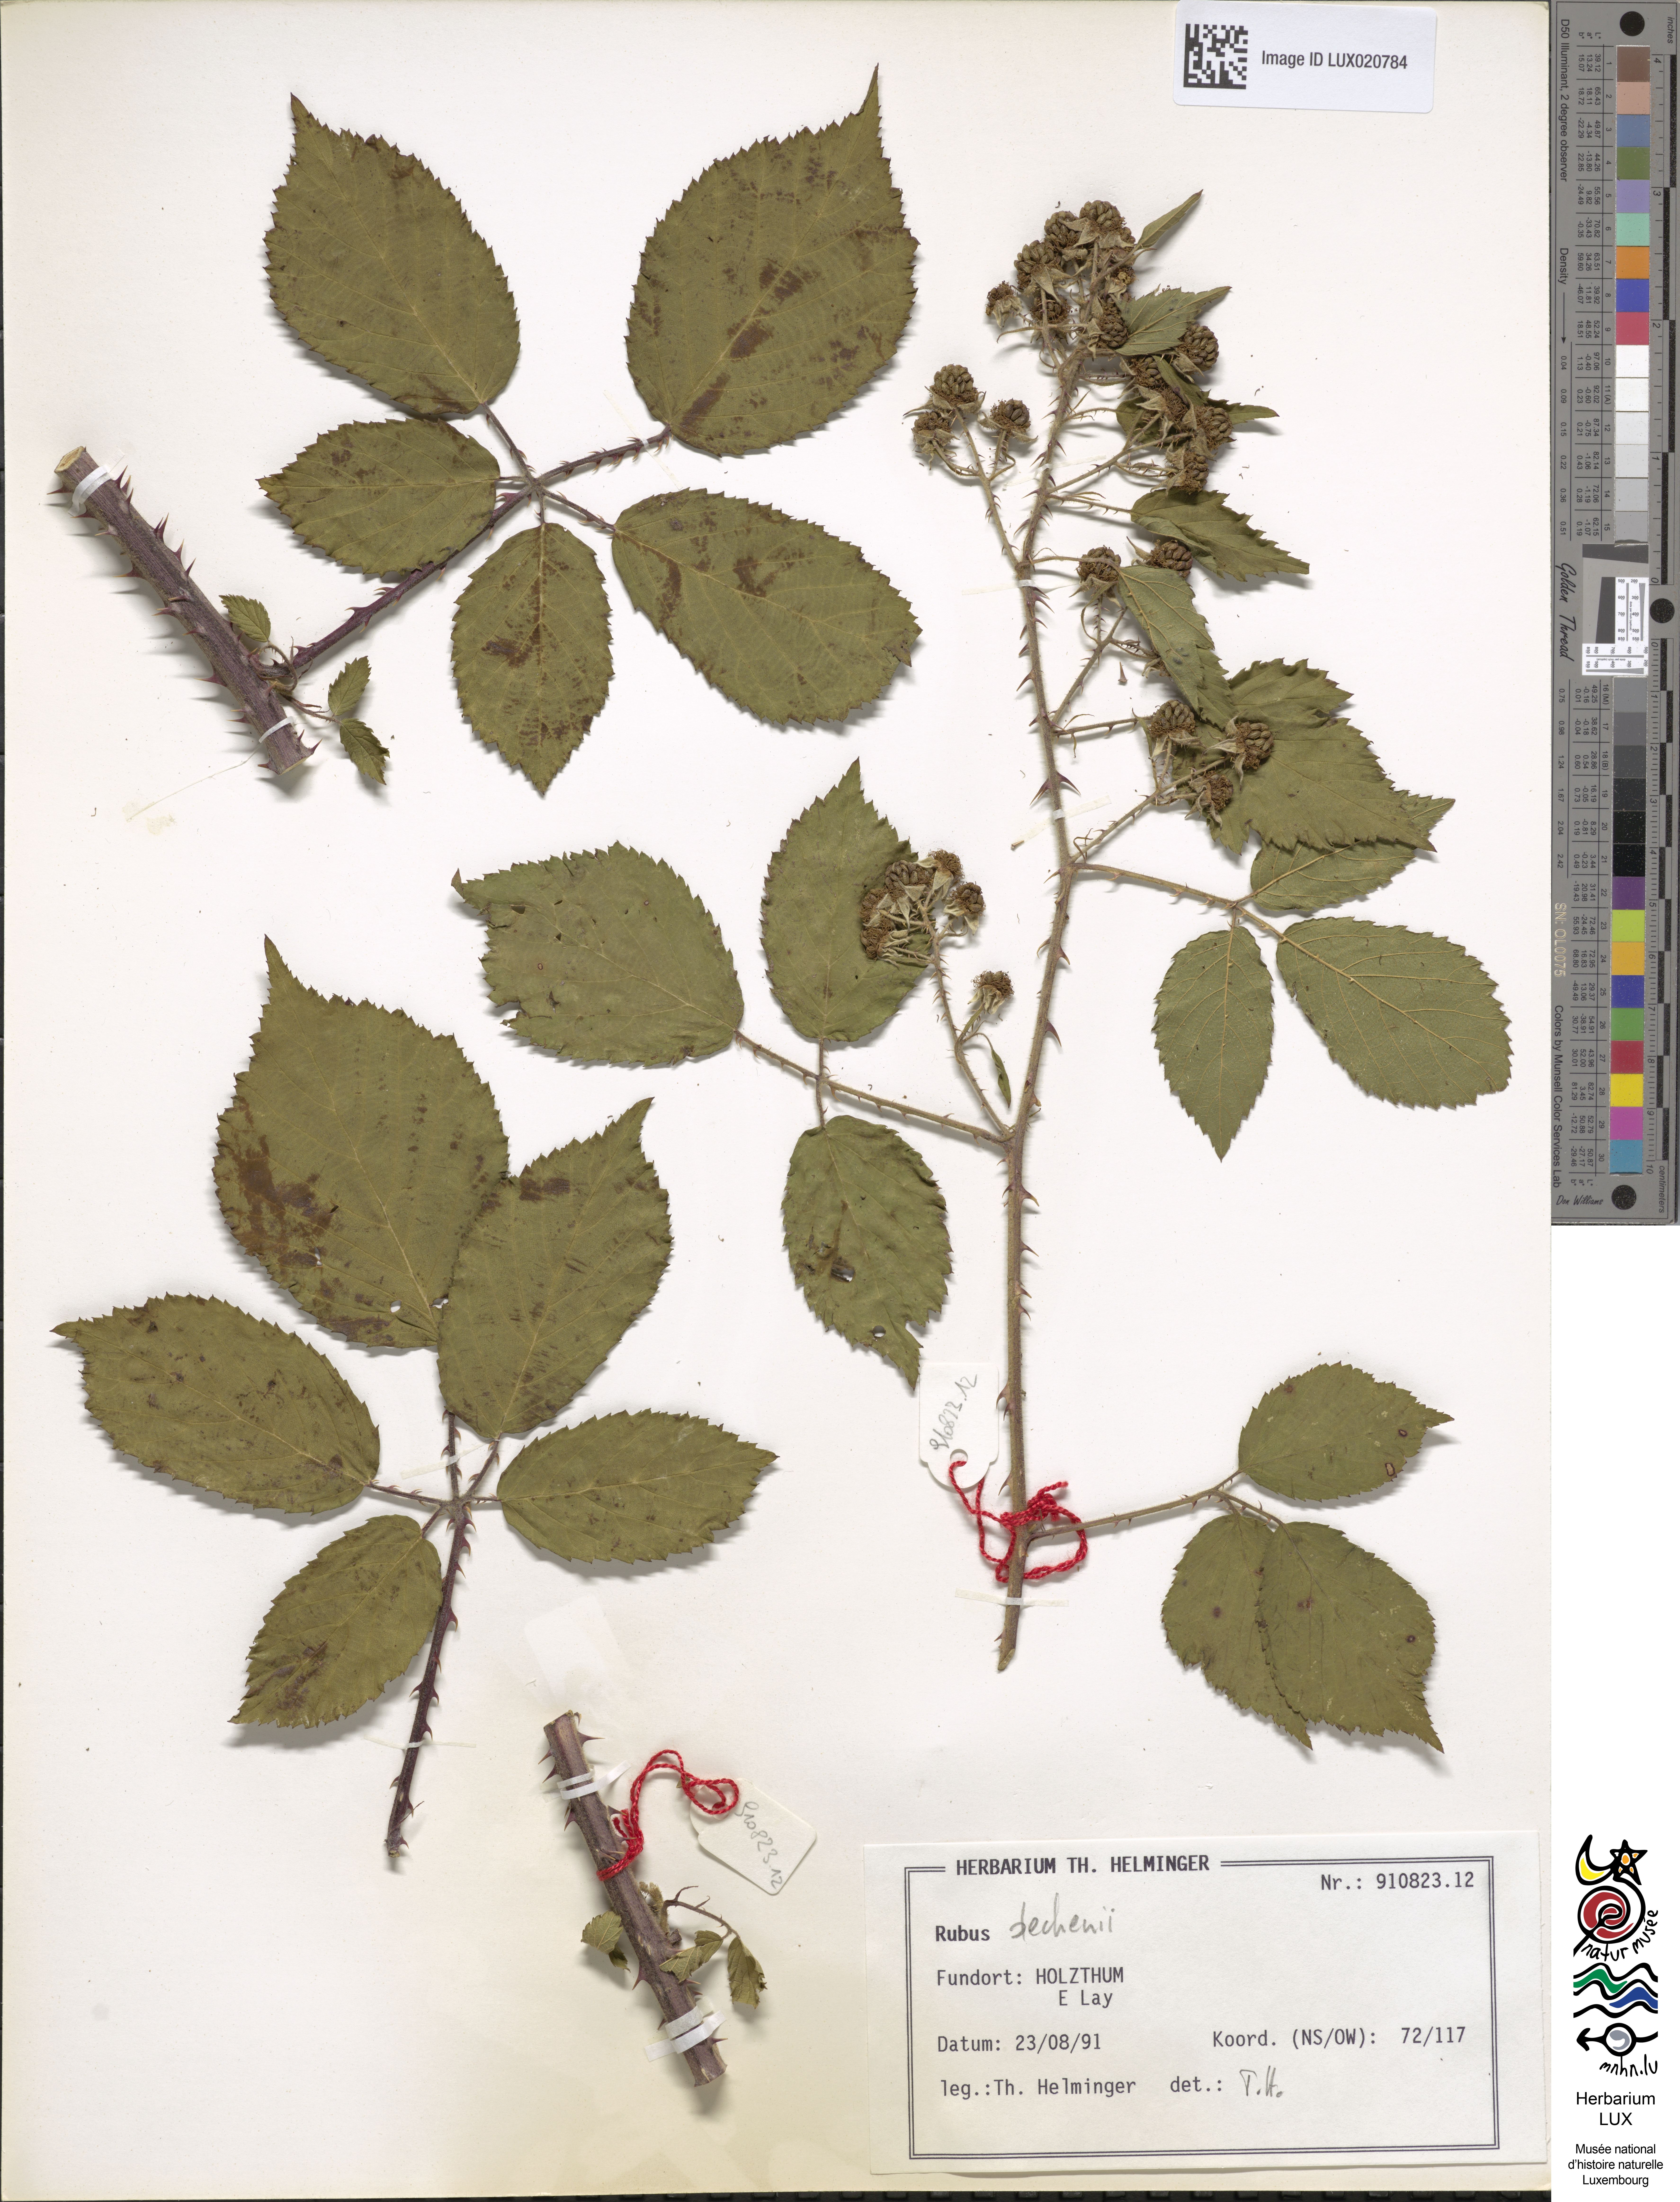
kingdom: Plantae
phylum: Tracheophyta
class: Magnoliopsida
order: Rosales
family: Rosaceae
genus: Rubus
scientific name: Rubus dechenii
